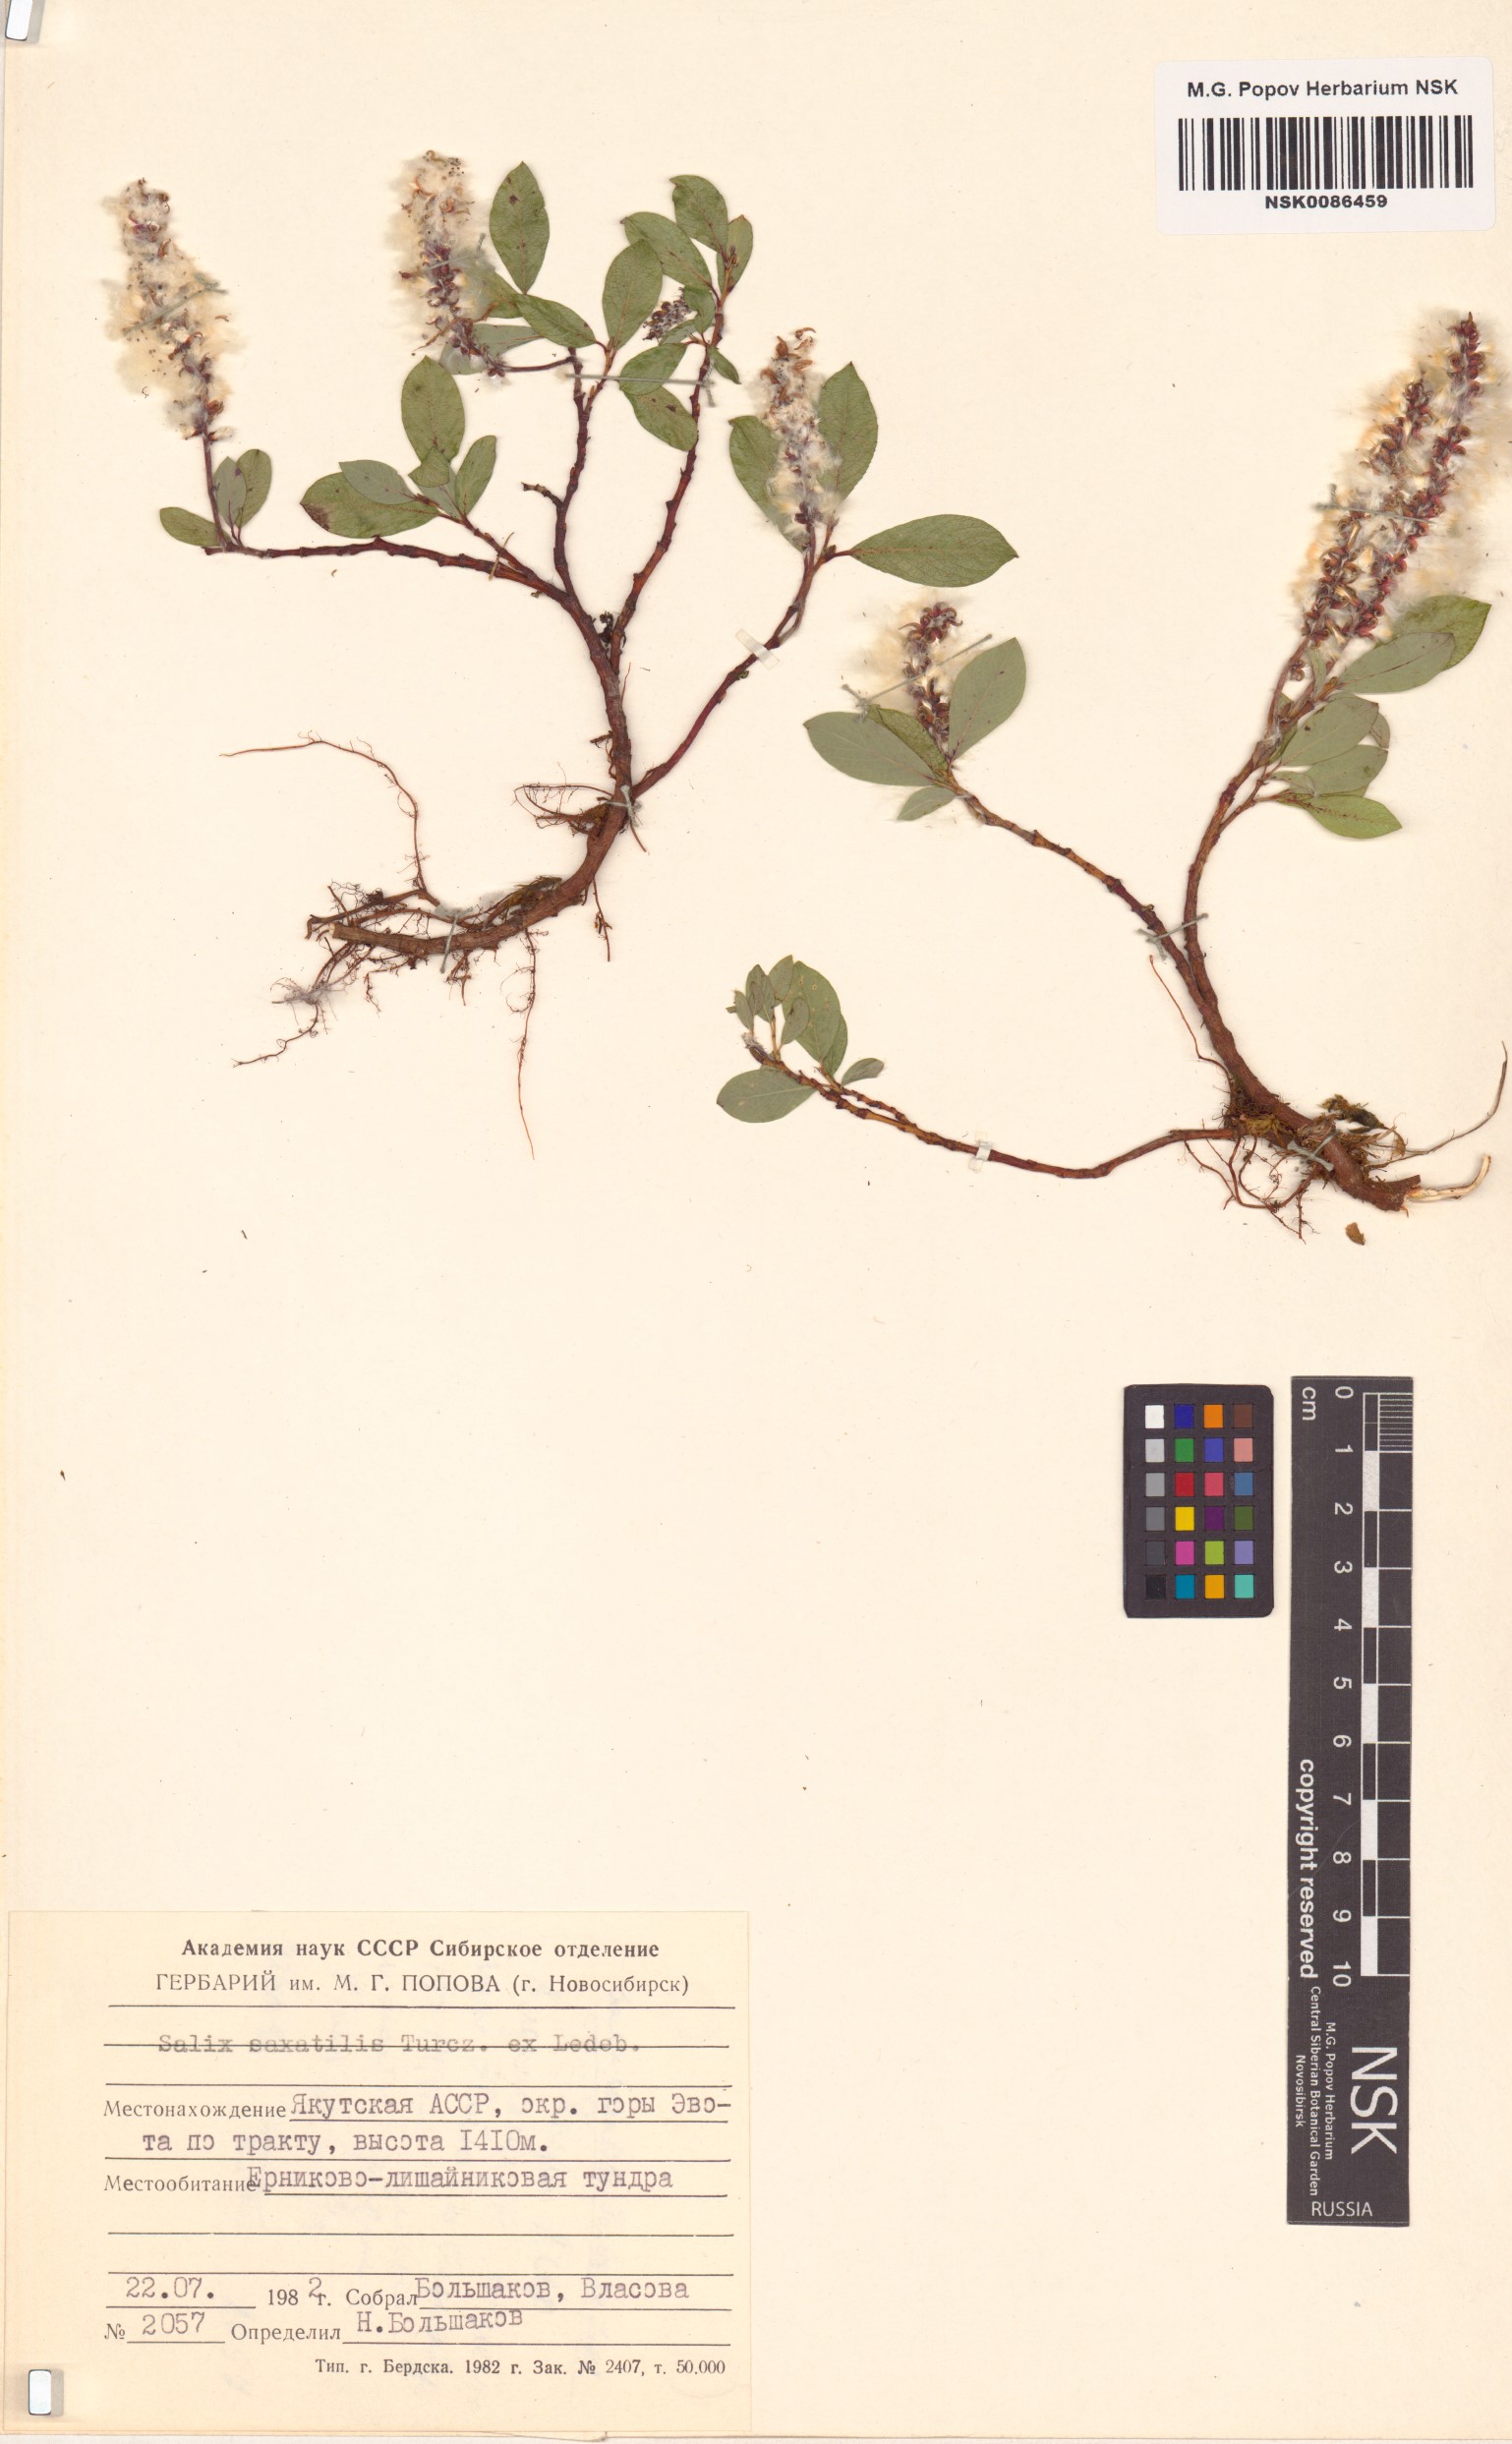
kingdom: Plantae
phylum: Tracheophyta
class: Magnoliopsida
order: Malpighiales
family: Salicaceae
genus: Salix
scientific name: Salix saxatilis
